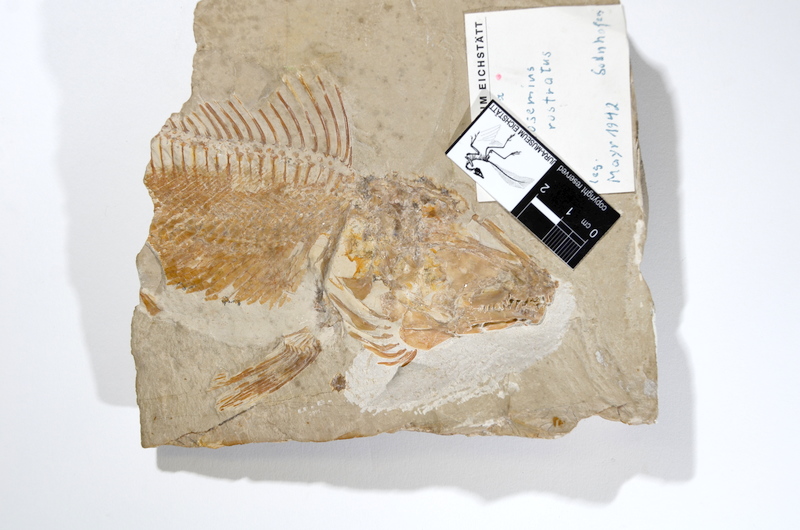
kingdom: Animalia
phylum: Chordata
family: Macrosemiidae
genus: Macrosemius
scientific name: Macrosemius rostratus
